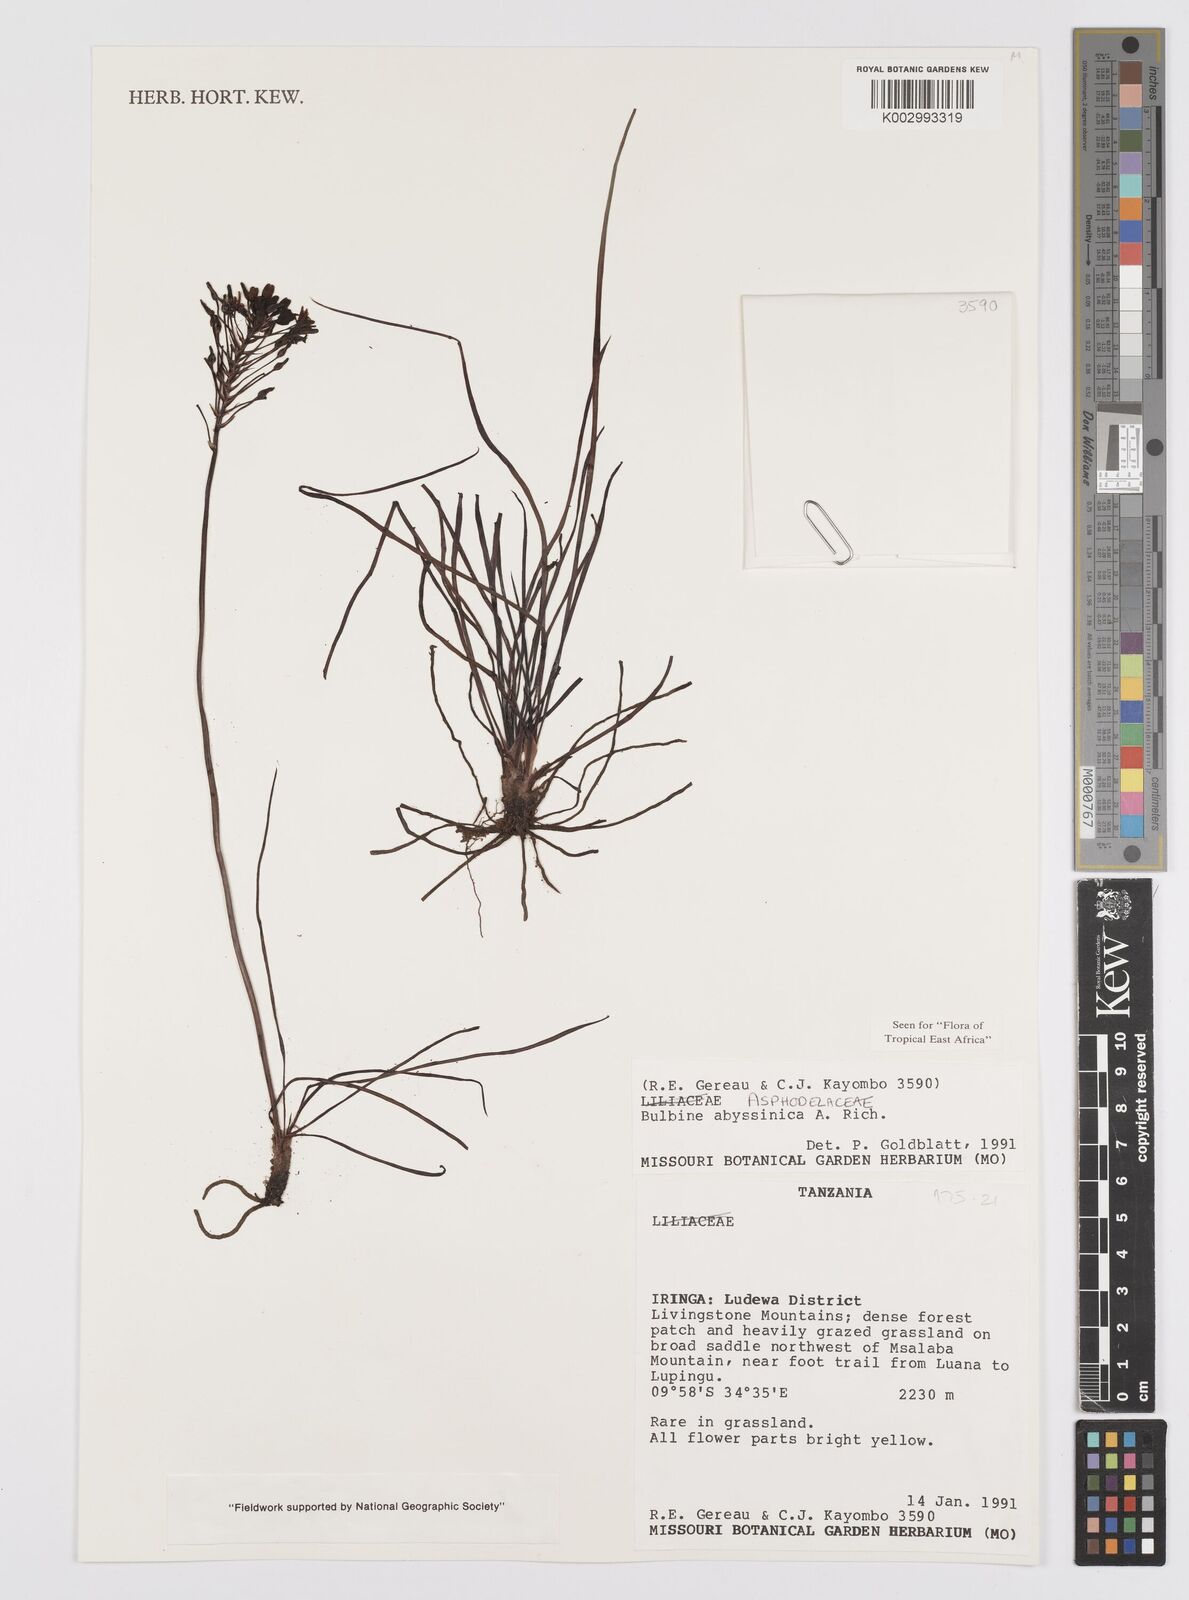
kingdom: Plantae
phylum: Tracheophyta
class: Liliopsida
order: Asparagales
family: Asphodelaceae
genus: Bulbine
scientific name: Bulbine abyssinica
